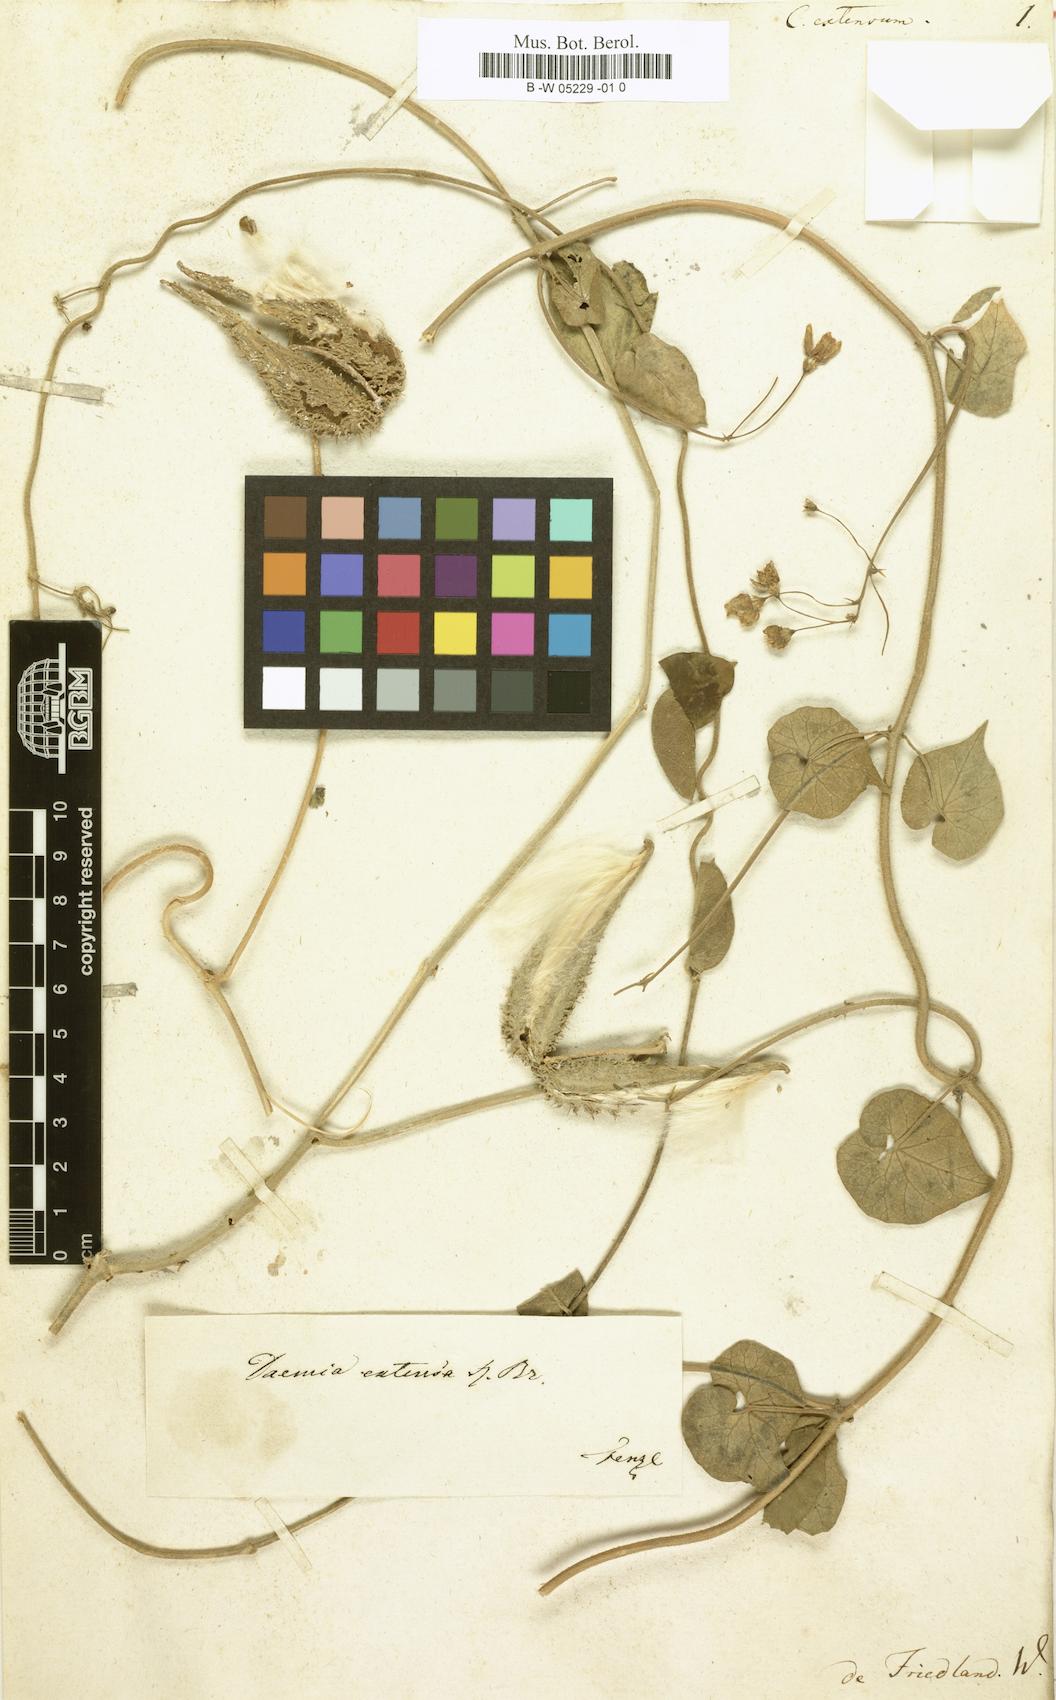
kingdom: Plantae
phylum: Tracheophyta
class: Magnoliopsida
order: Gentianales
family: Apocynaceae
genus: Pergularia
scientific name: Pergularia daemia
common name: Trellis-vine
